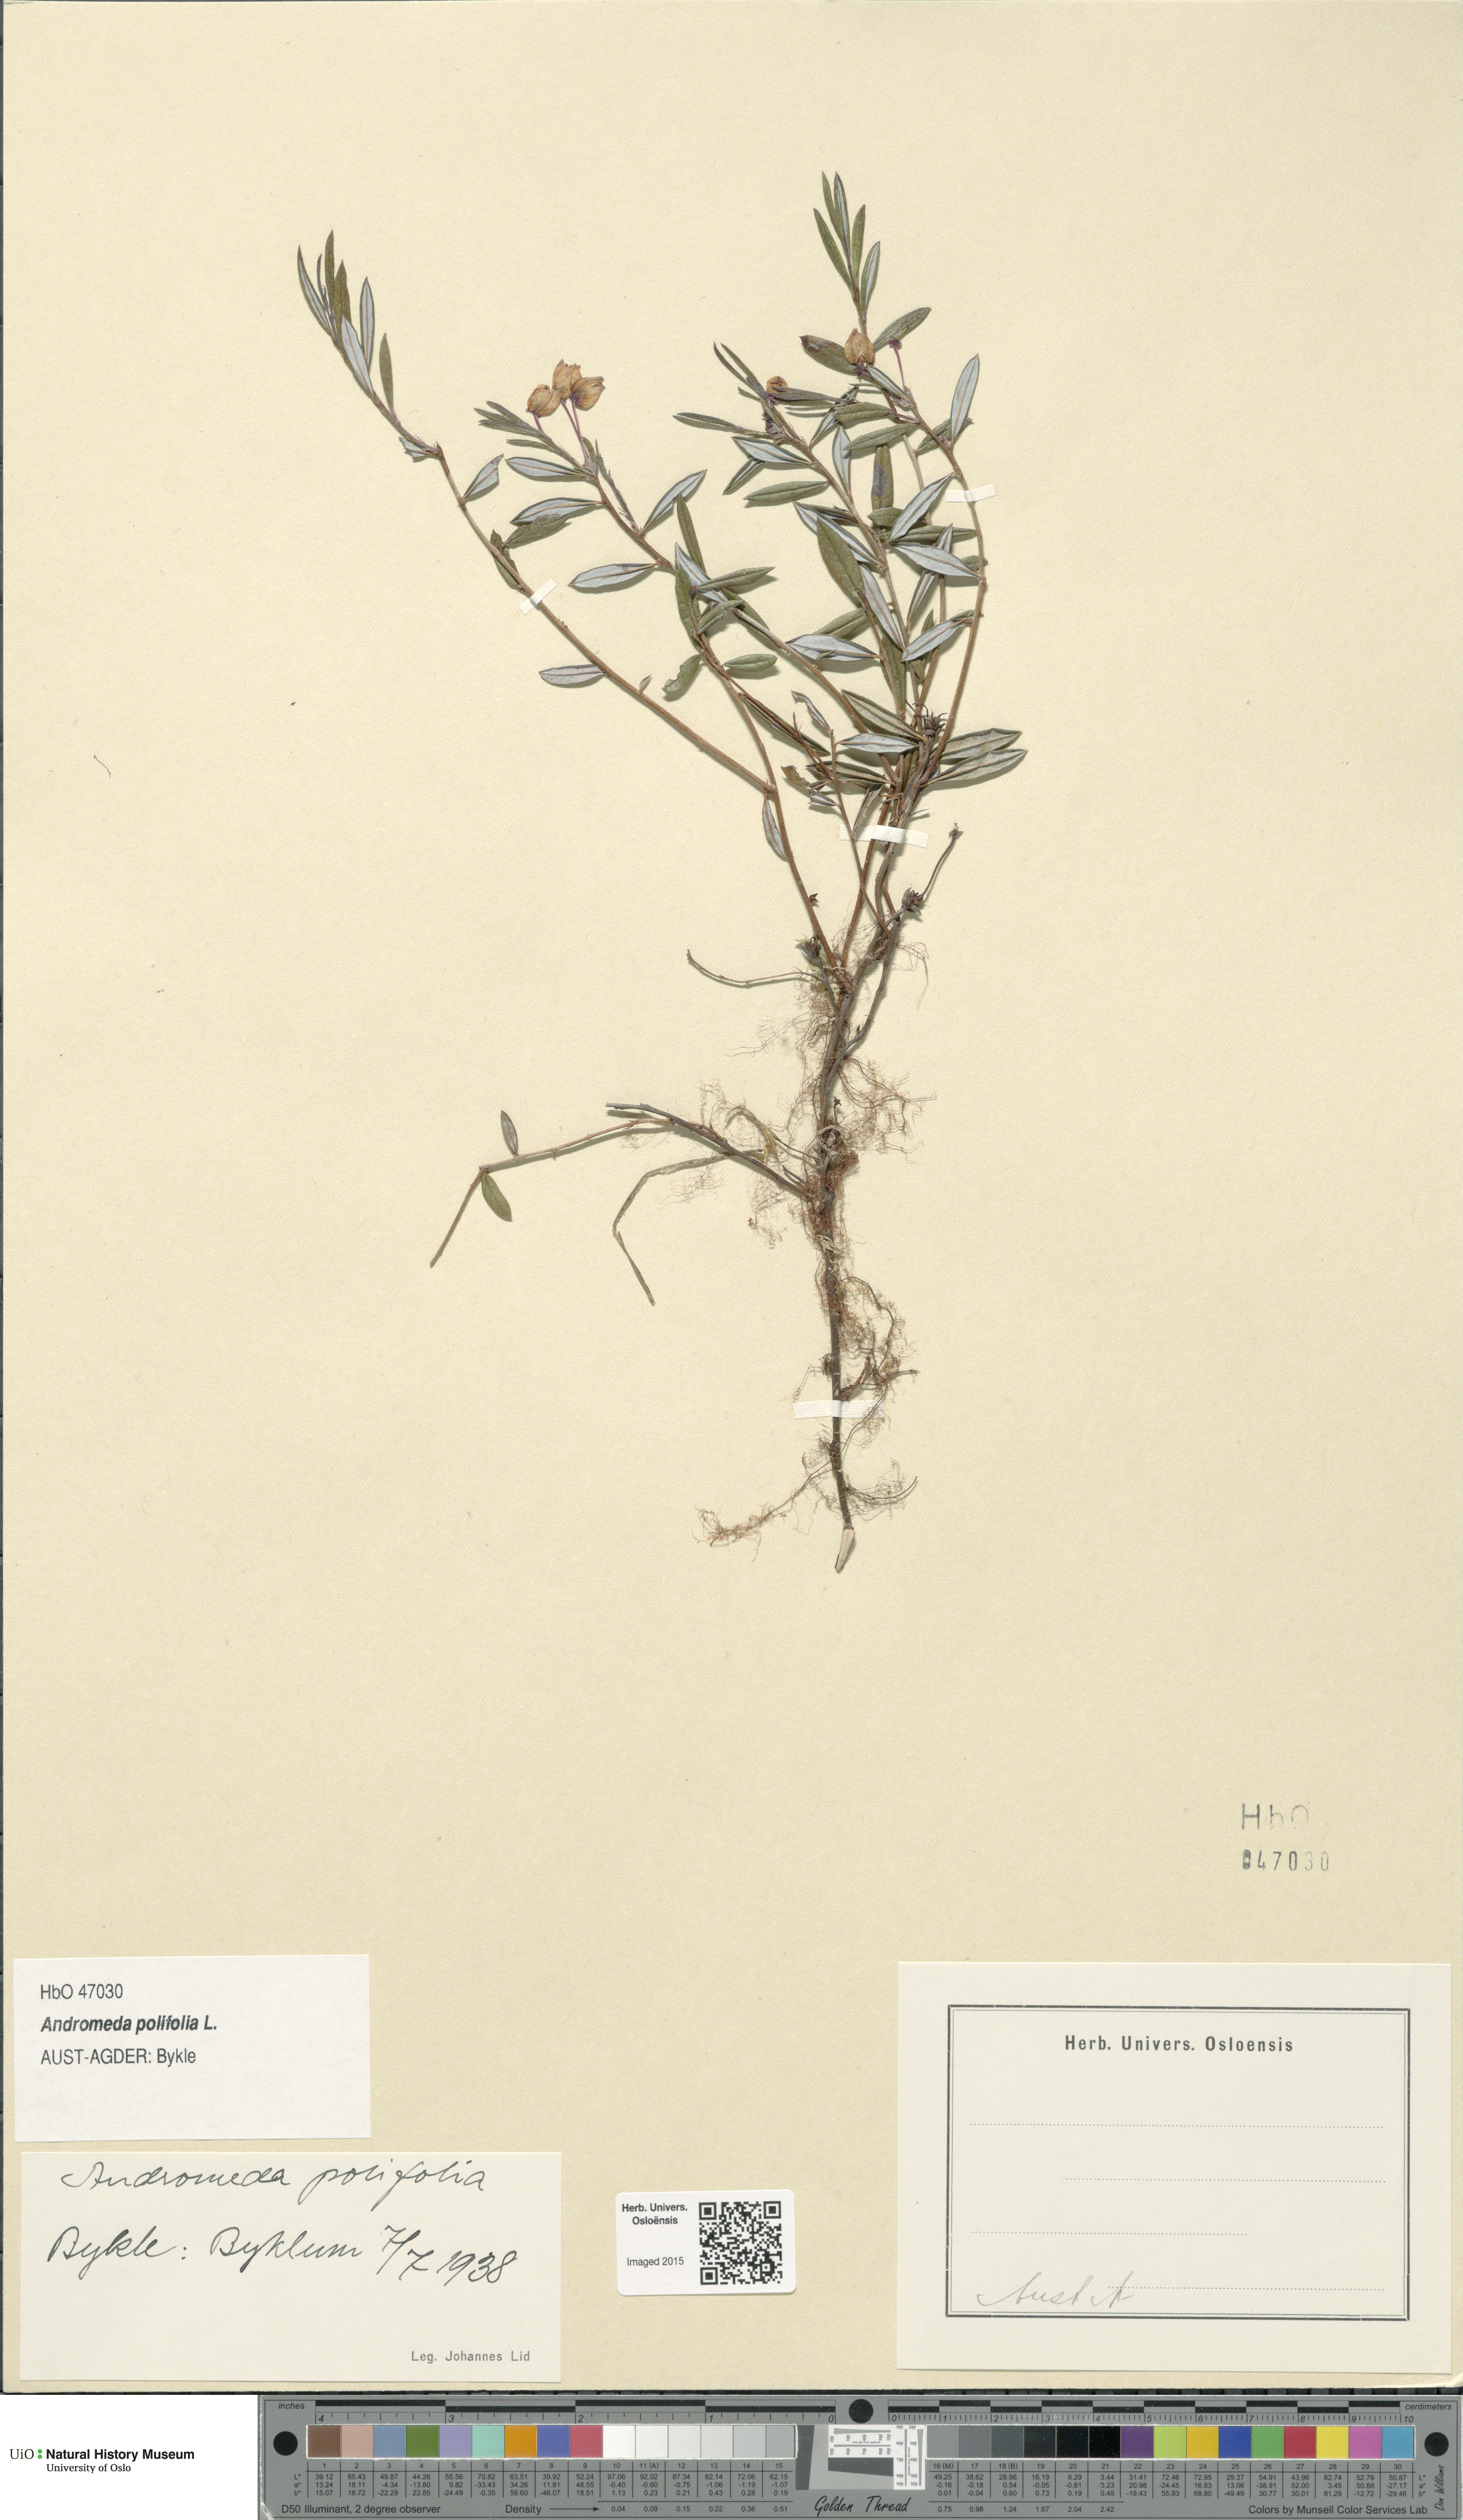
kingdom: Plantae
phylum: Tracheophyta
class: Magnoliopsida
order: Ericales
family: Ericaceae
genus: Andromeda
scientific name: Andromeda polifolia
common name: Bog-rosemary
